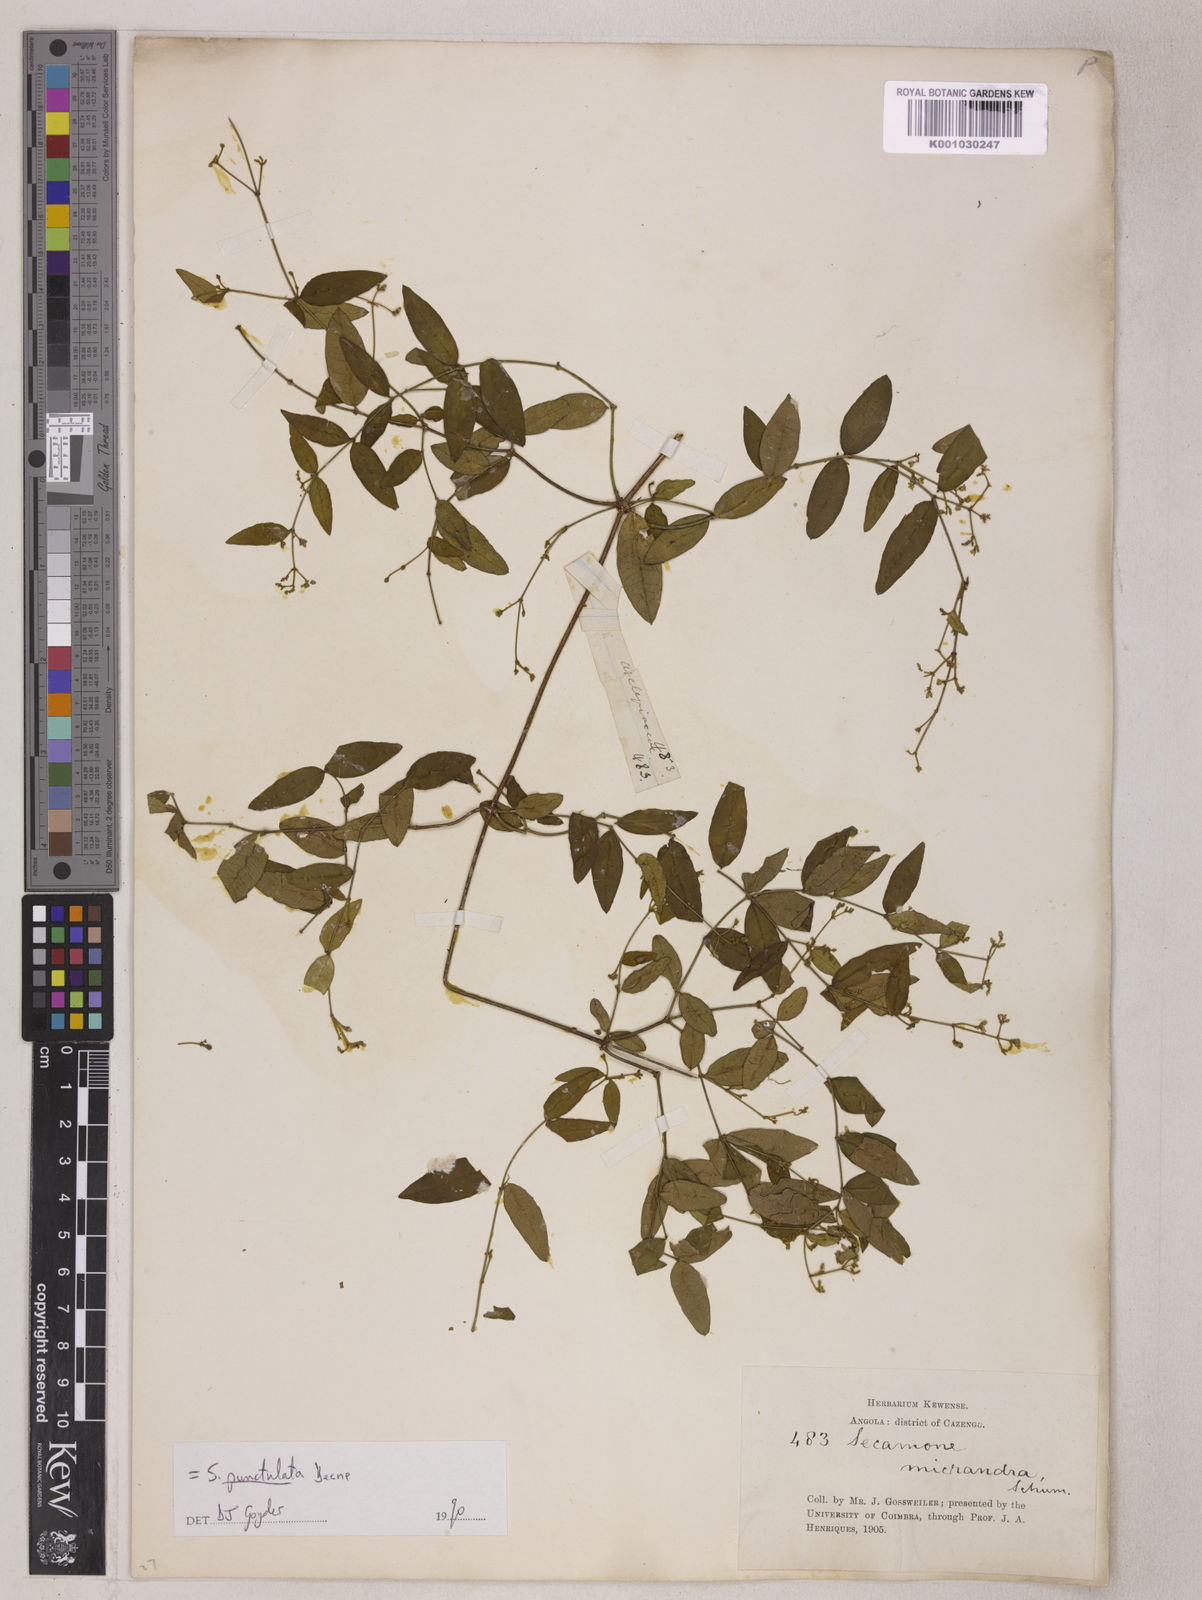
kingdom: Plantae
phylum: Tracheophyta
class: Magnoliopsida
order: Gentianales
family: Apocynaceae
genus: Secamone
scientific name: Secamone punctulata
